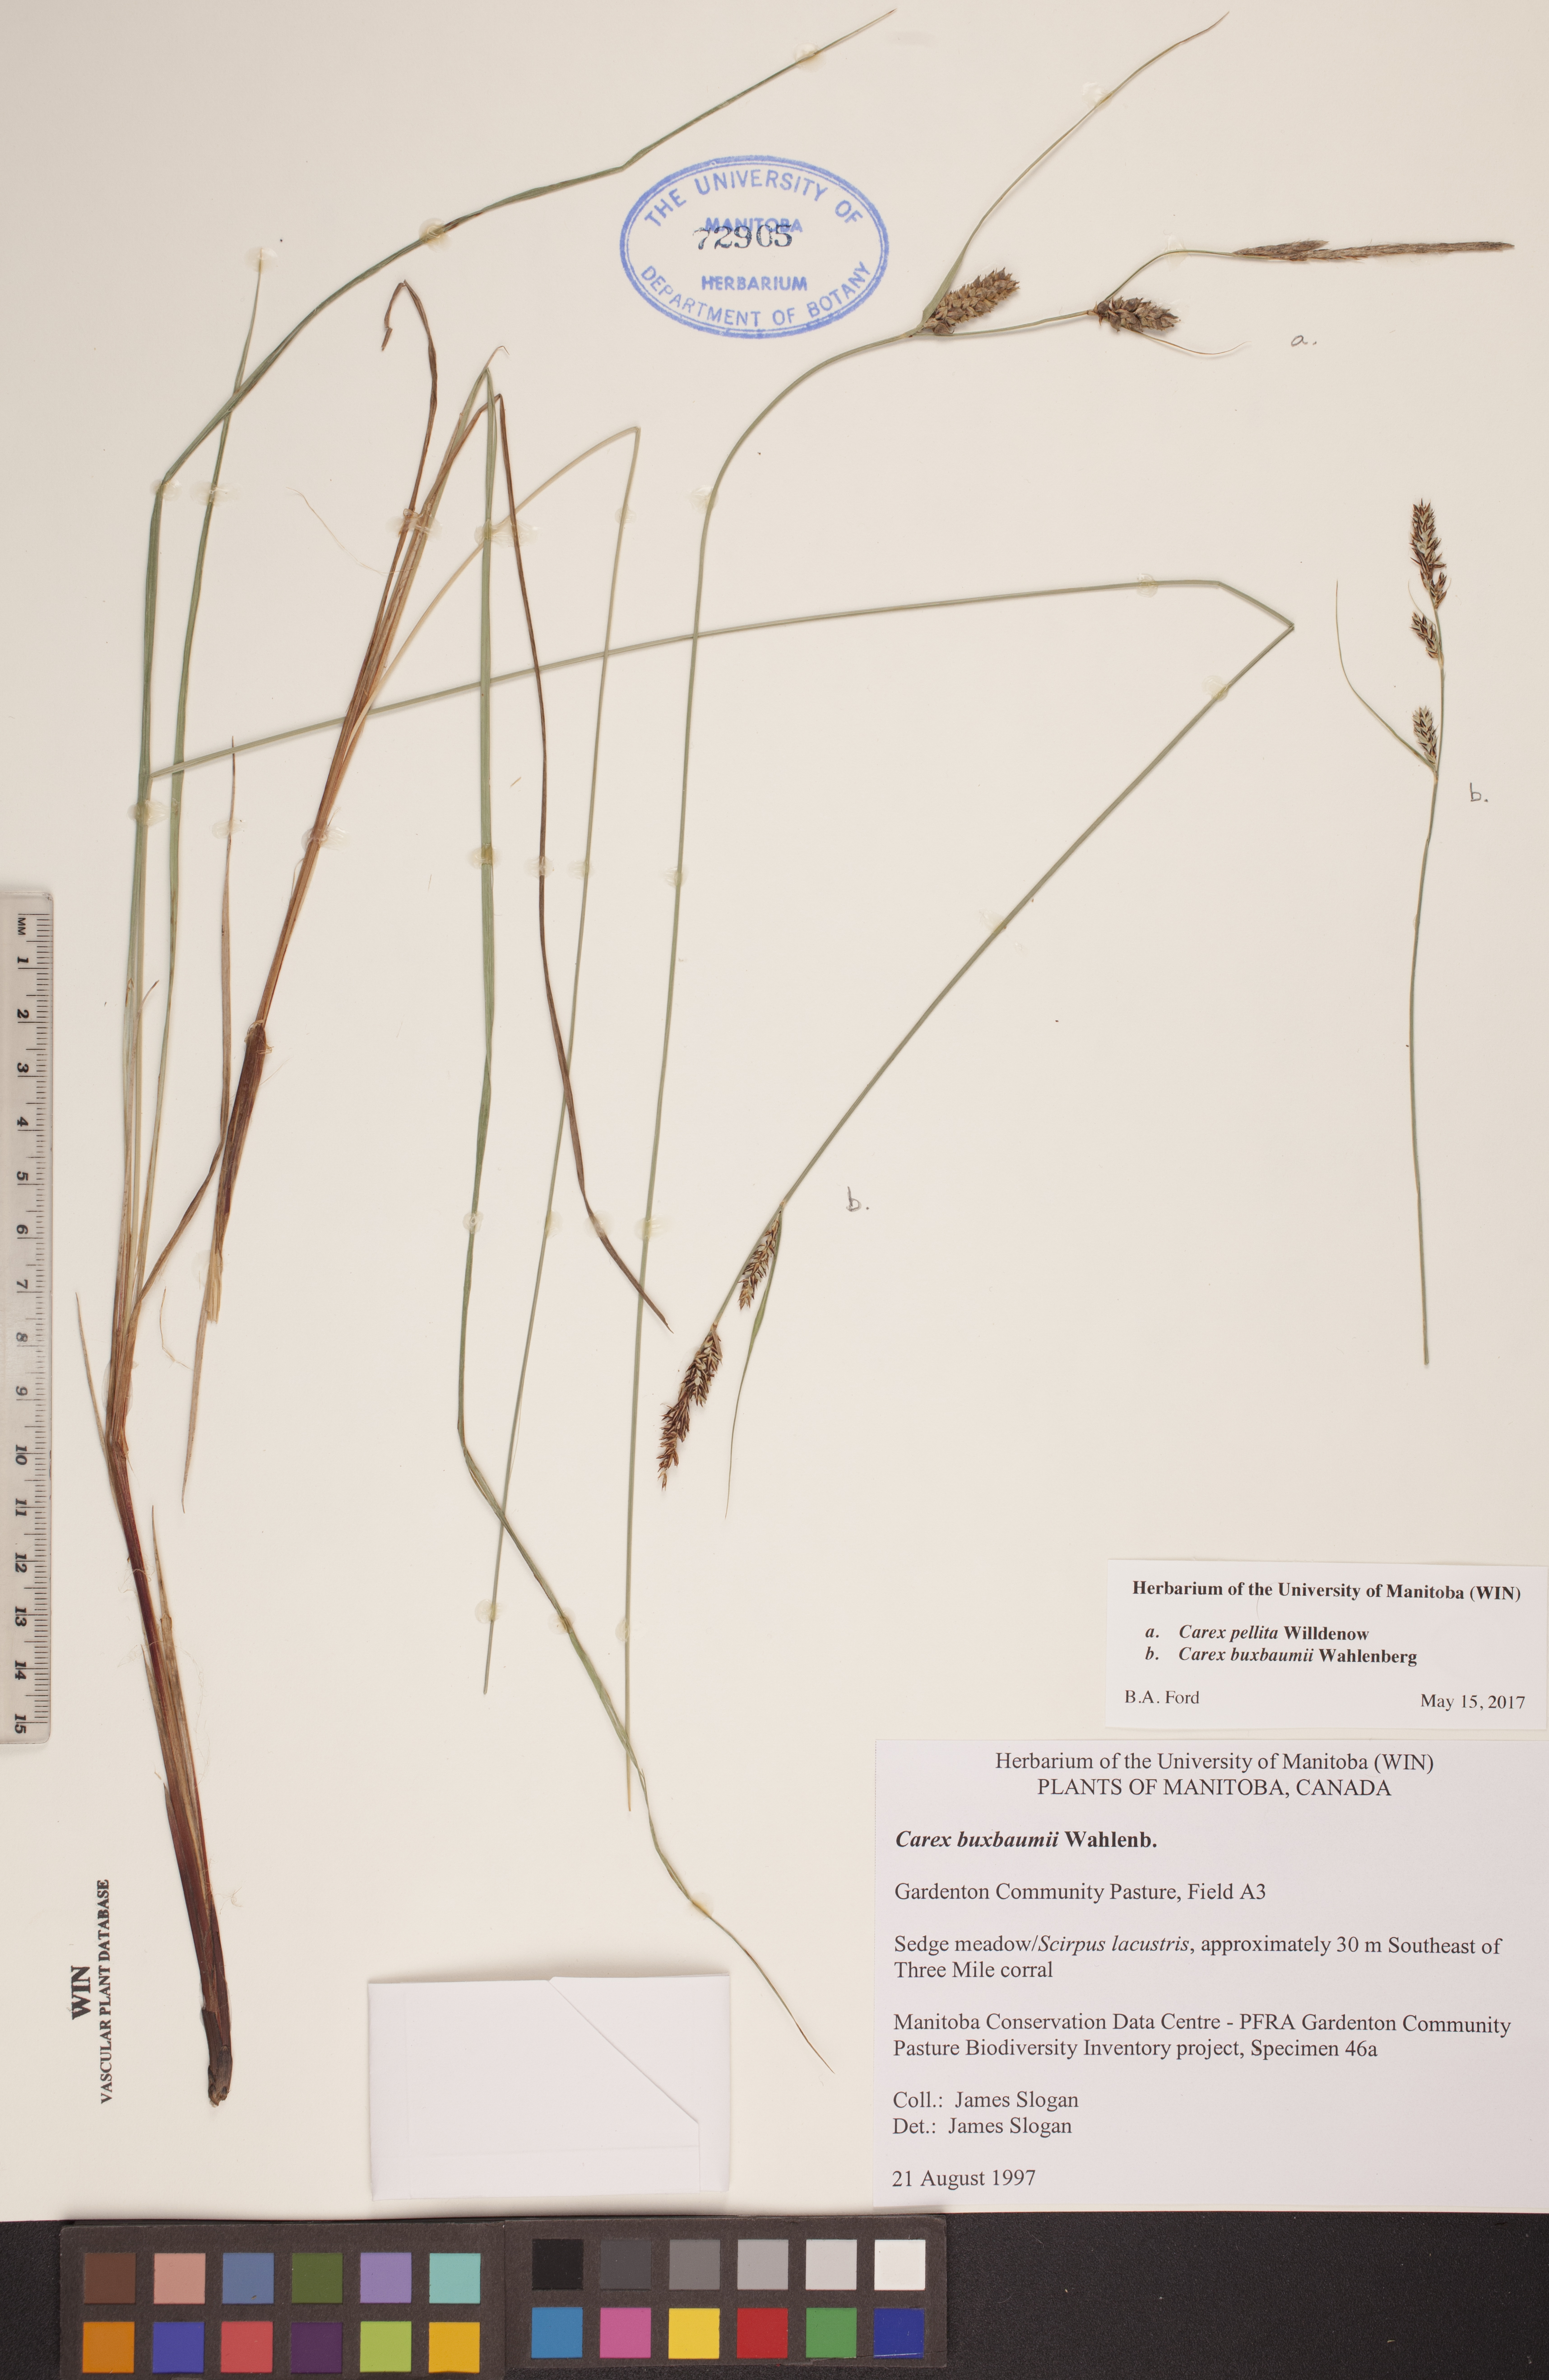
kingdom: Plantae
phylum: Tracheophyta
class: Liliopsida
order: Poales
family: Cyperaceae
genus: Carex
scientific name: Carex pellita
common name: Woolly sedge
